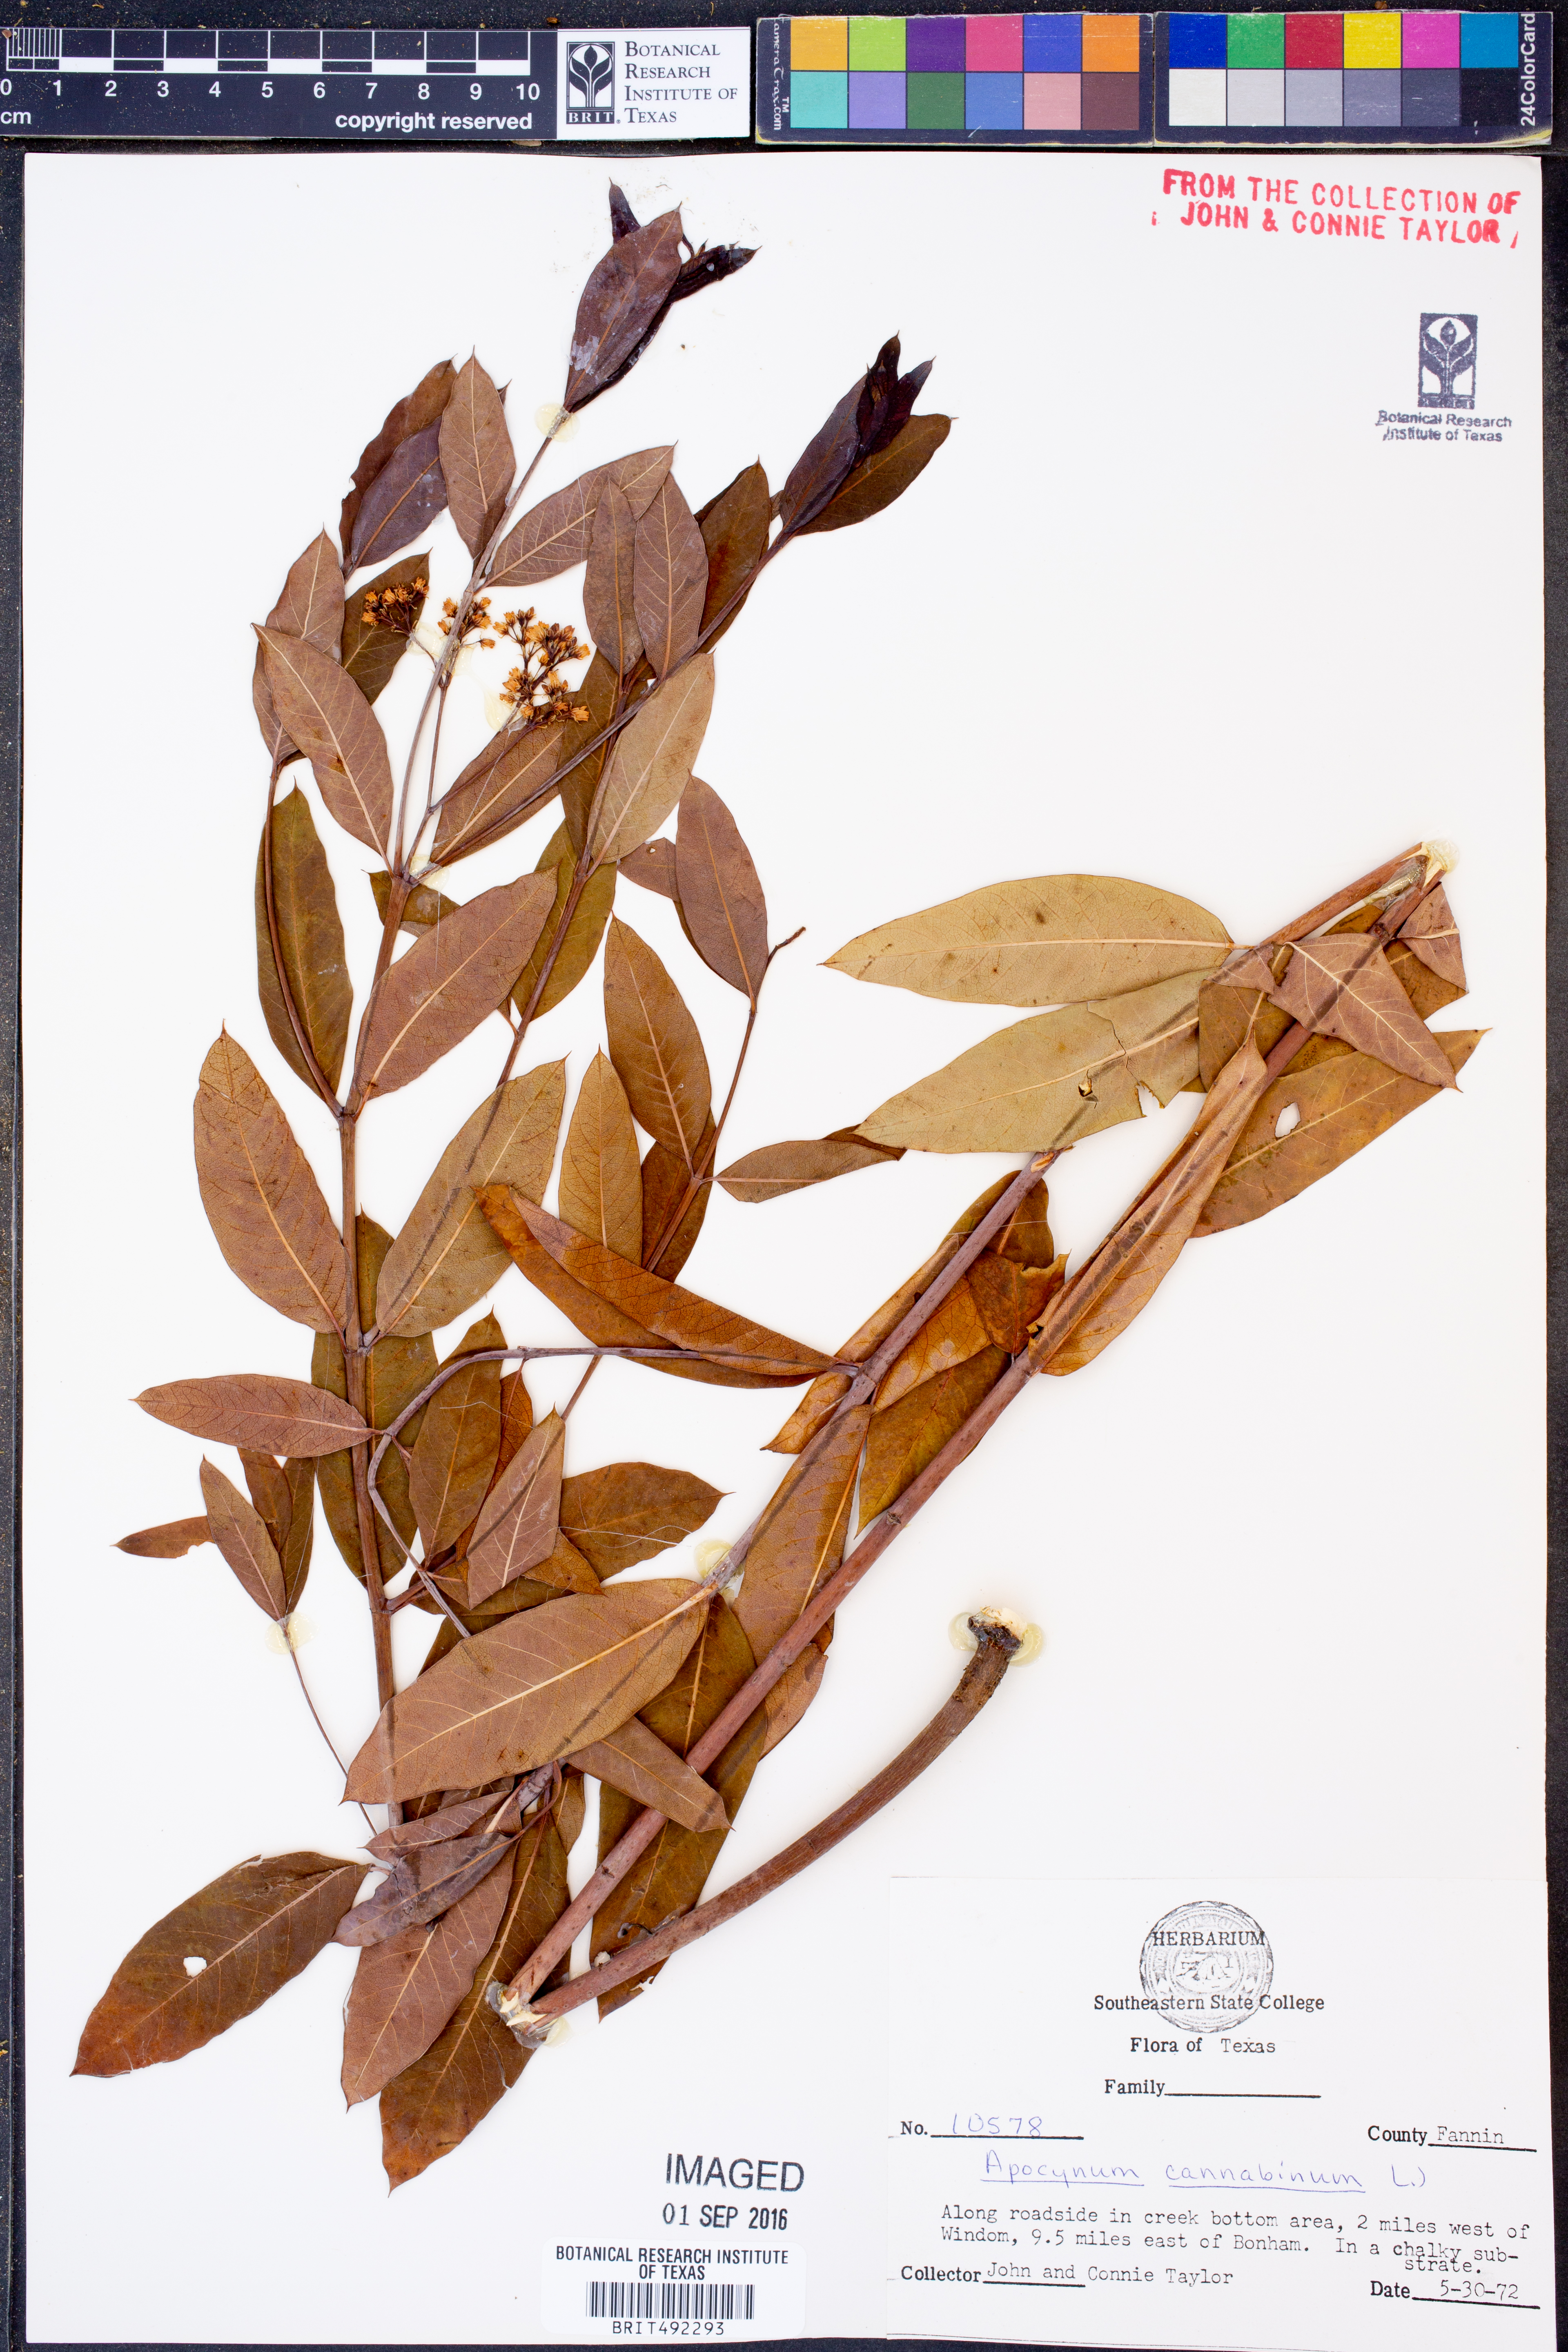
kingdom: Plantae
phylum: Tracheophyta
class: Magnoliopsida
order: Gentianales
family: Apocynaceae
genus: Apocynum
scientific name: Apocynum cannabinum
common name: Hemp dogbane
